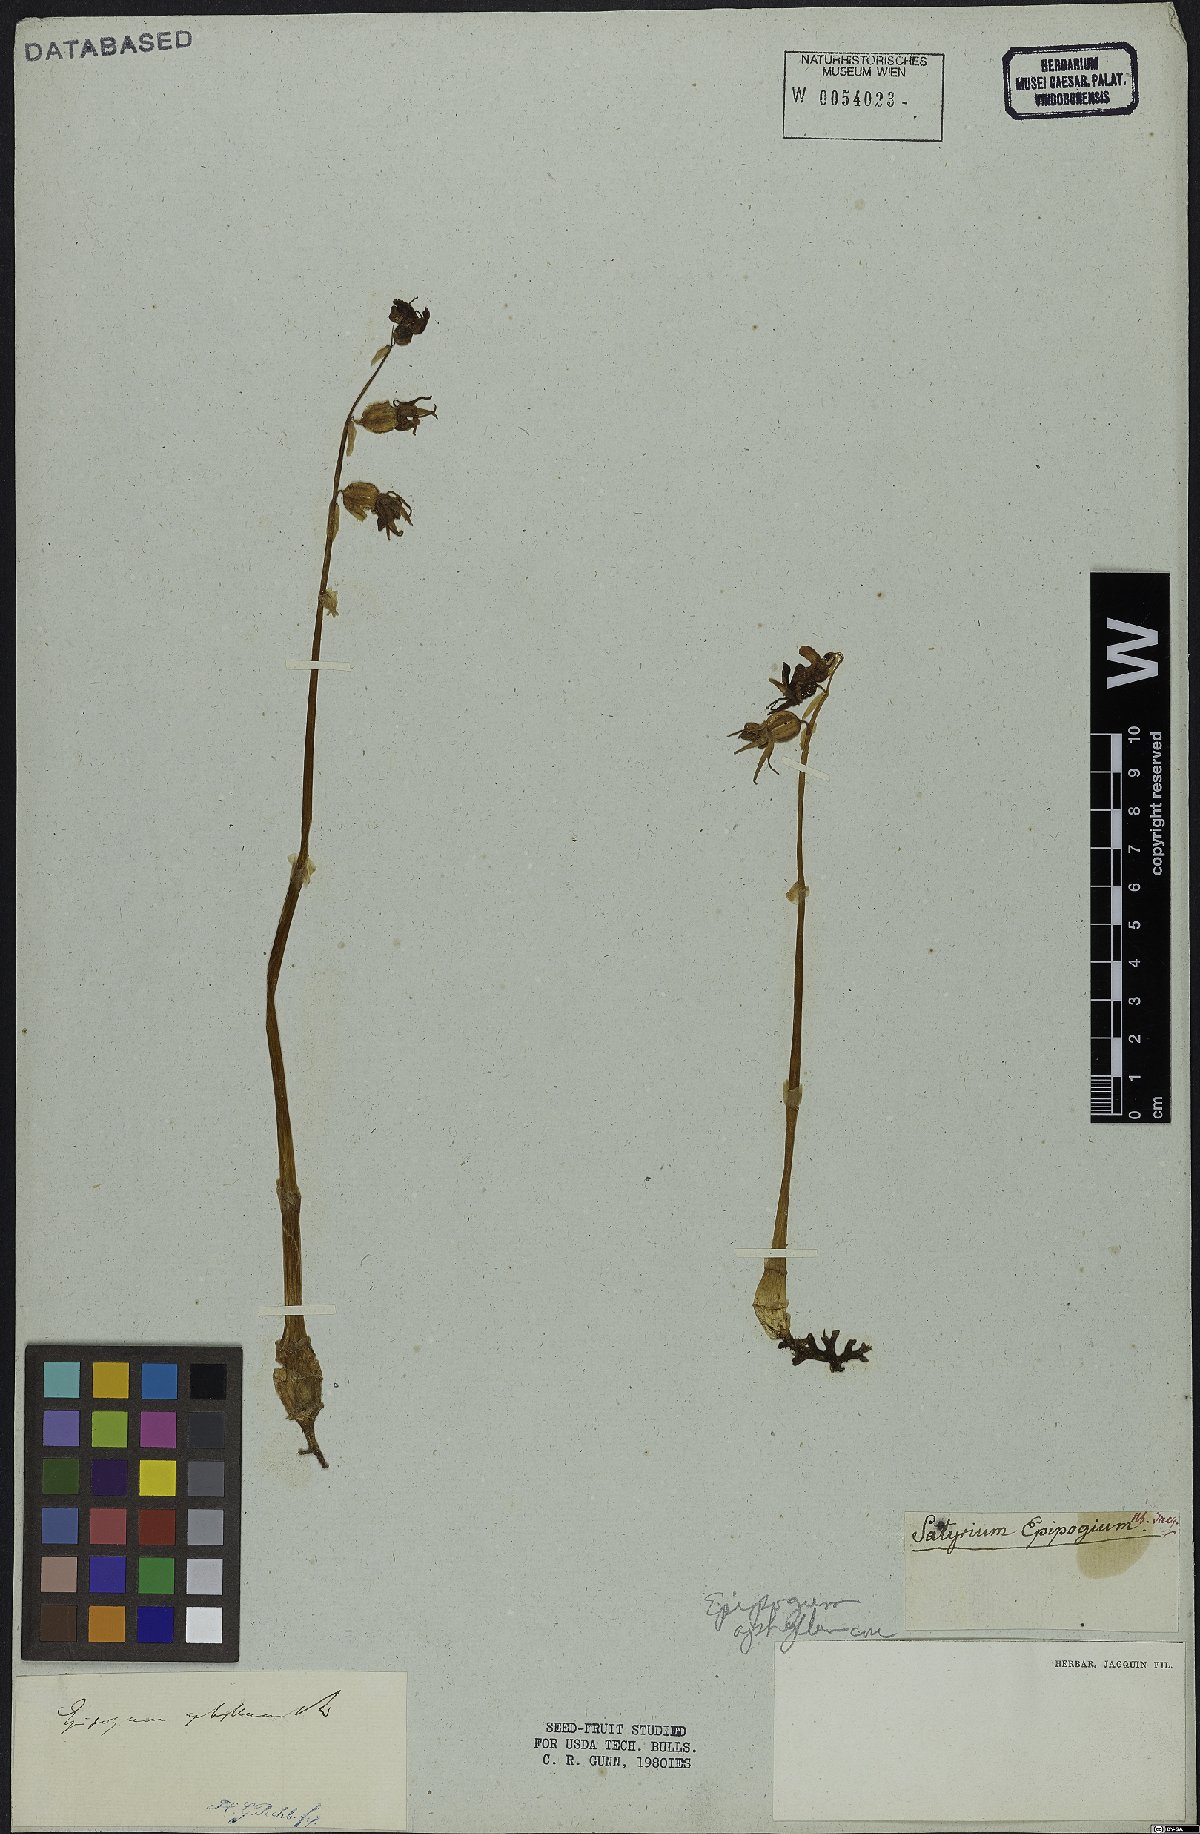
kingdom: Plantae
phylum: Tracheophyta
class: Liliopsida
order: Asparagales
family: Orchidaceae
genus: Epipogium
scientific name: Epipogium aphyllum
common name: Ghost orchid
